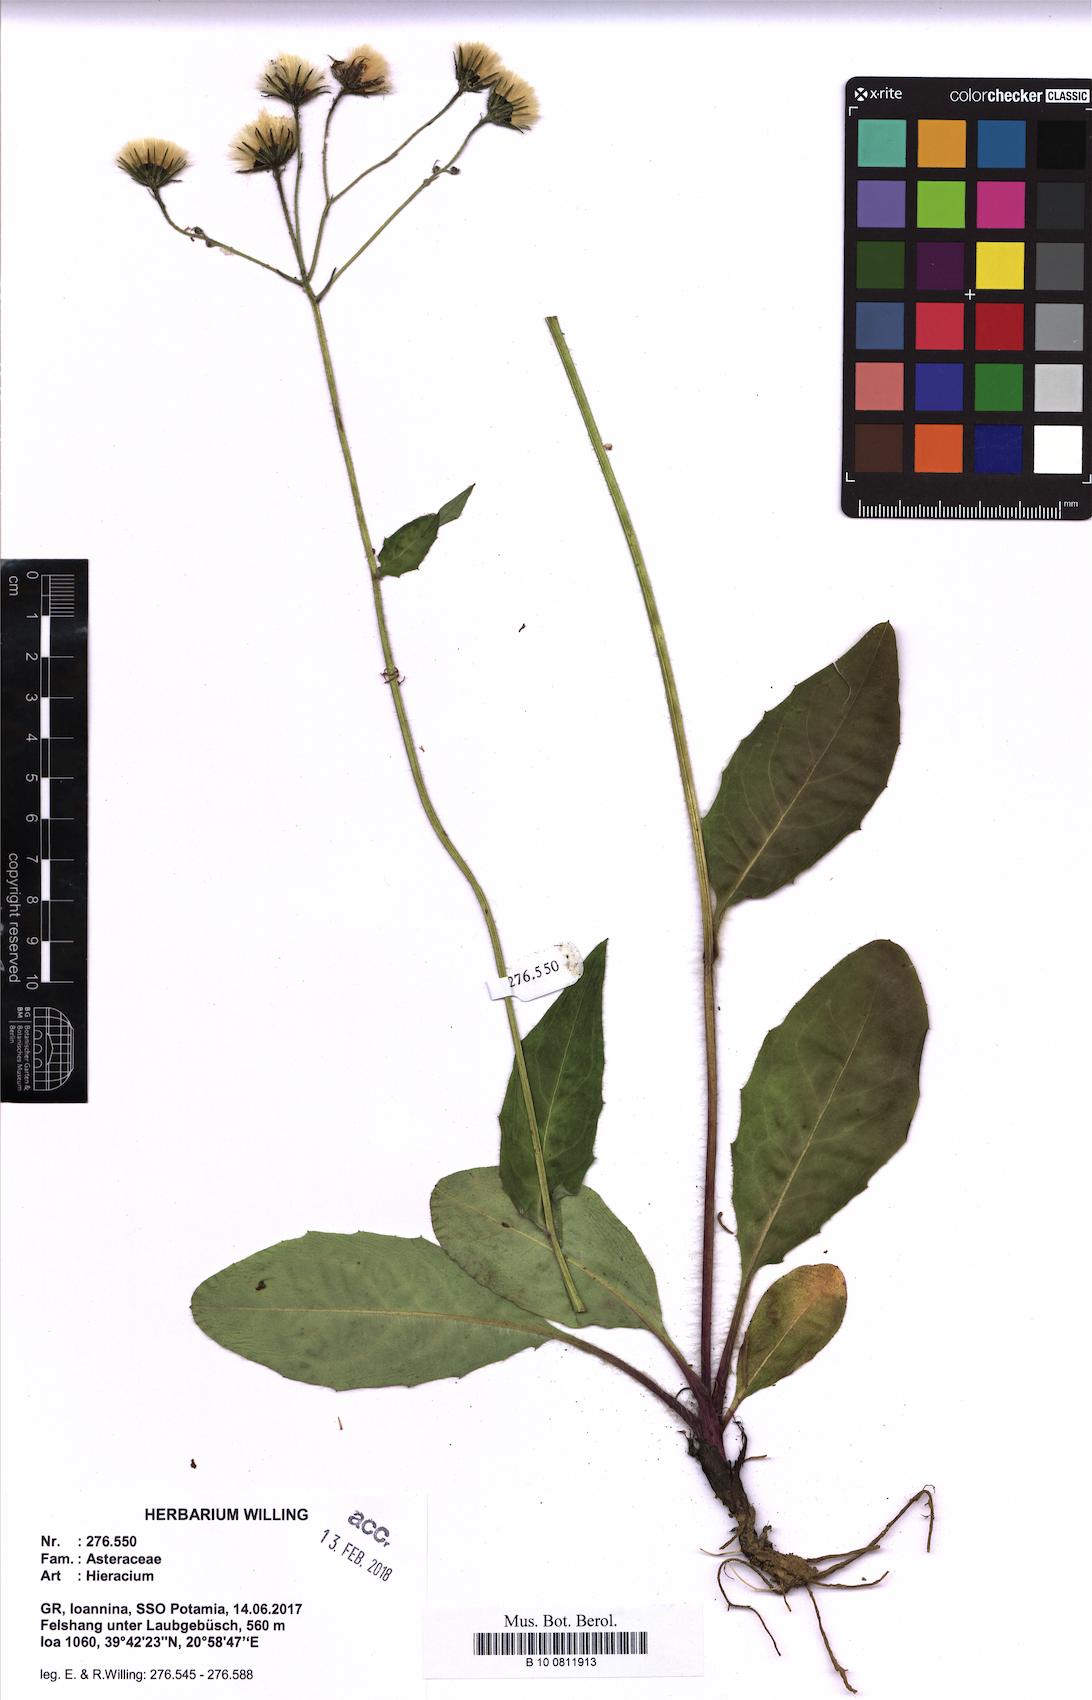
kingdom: Plantae
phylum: Tracheophyta
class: Magnoliopsida
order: Asterales
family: Asteraceae
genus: Hieracium
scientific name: Hieracium diaphanoides
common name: Fine-bracted hawkweed
